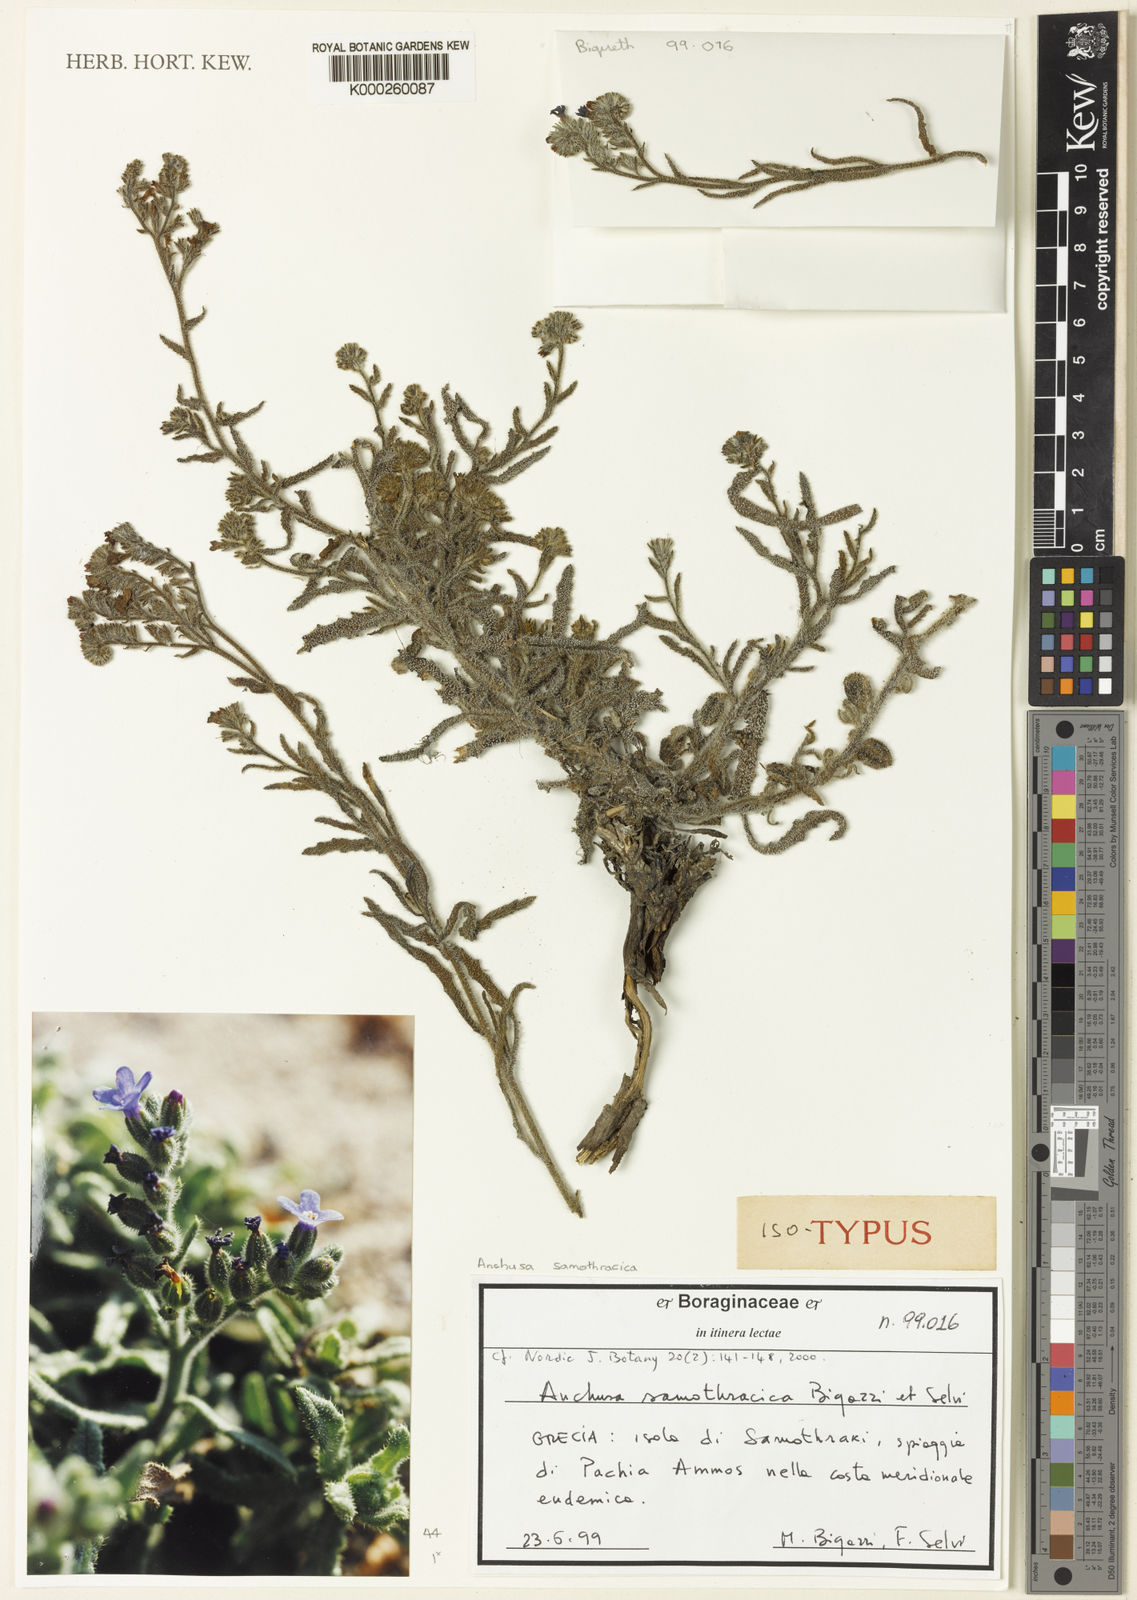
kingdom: Plantae
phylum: Tracheophyta
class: Magnoliopsida
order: Boraginales
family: Boraginaceae
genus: Anchusa
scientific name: Anchusa samothracica
